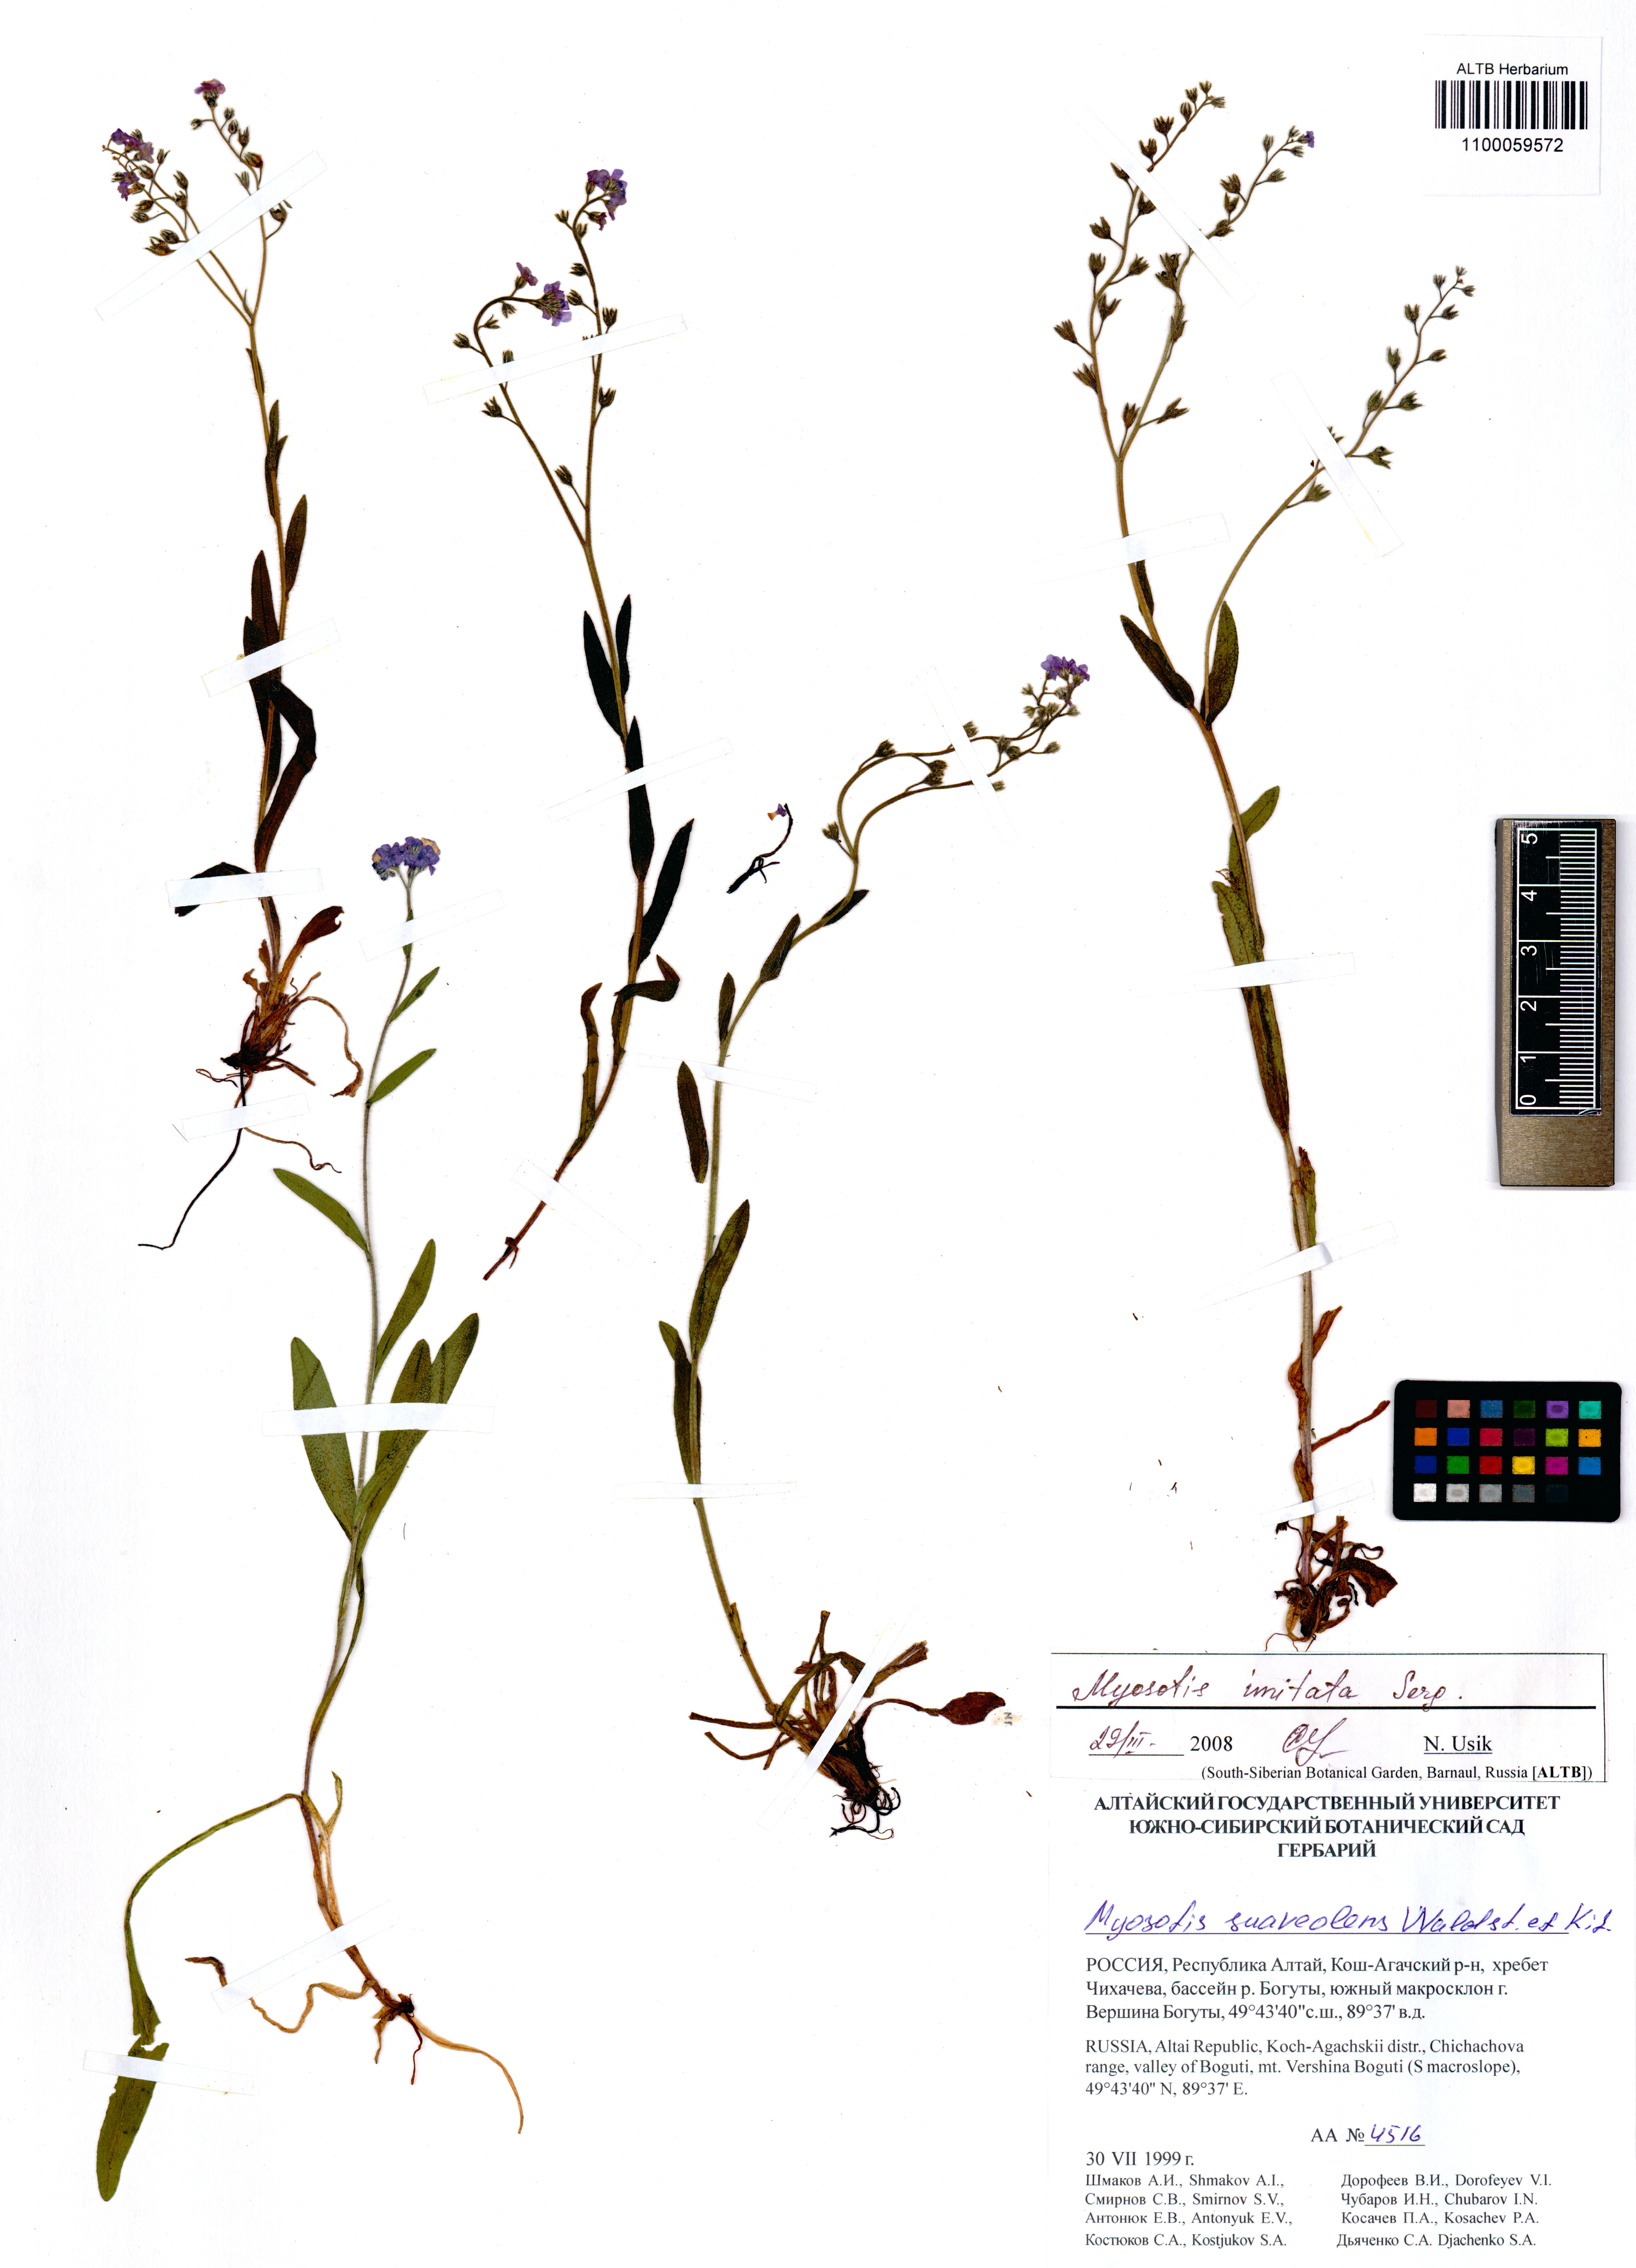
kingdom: Plantae
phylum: Tracheophyta
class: Magnoliopsida
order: Boraginales
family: Boraginaceae
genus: Myosotis
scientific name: Myosotis imitata
